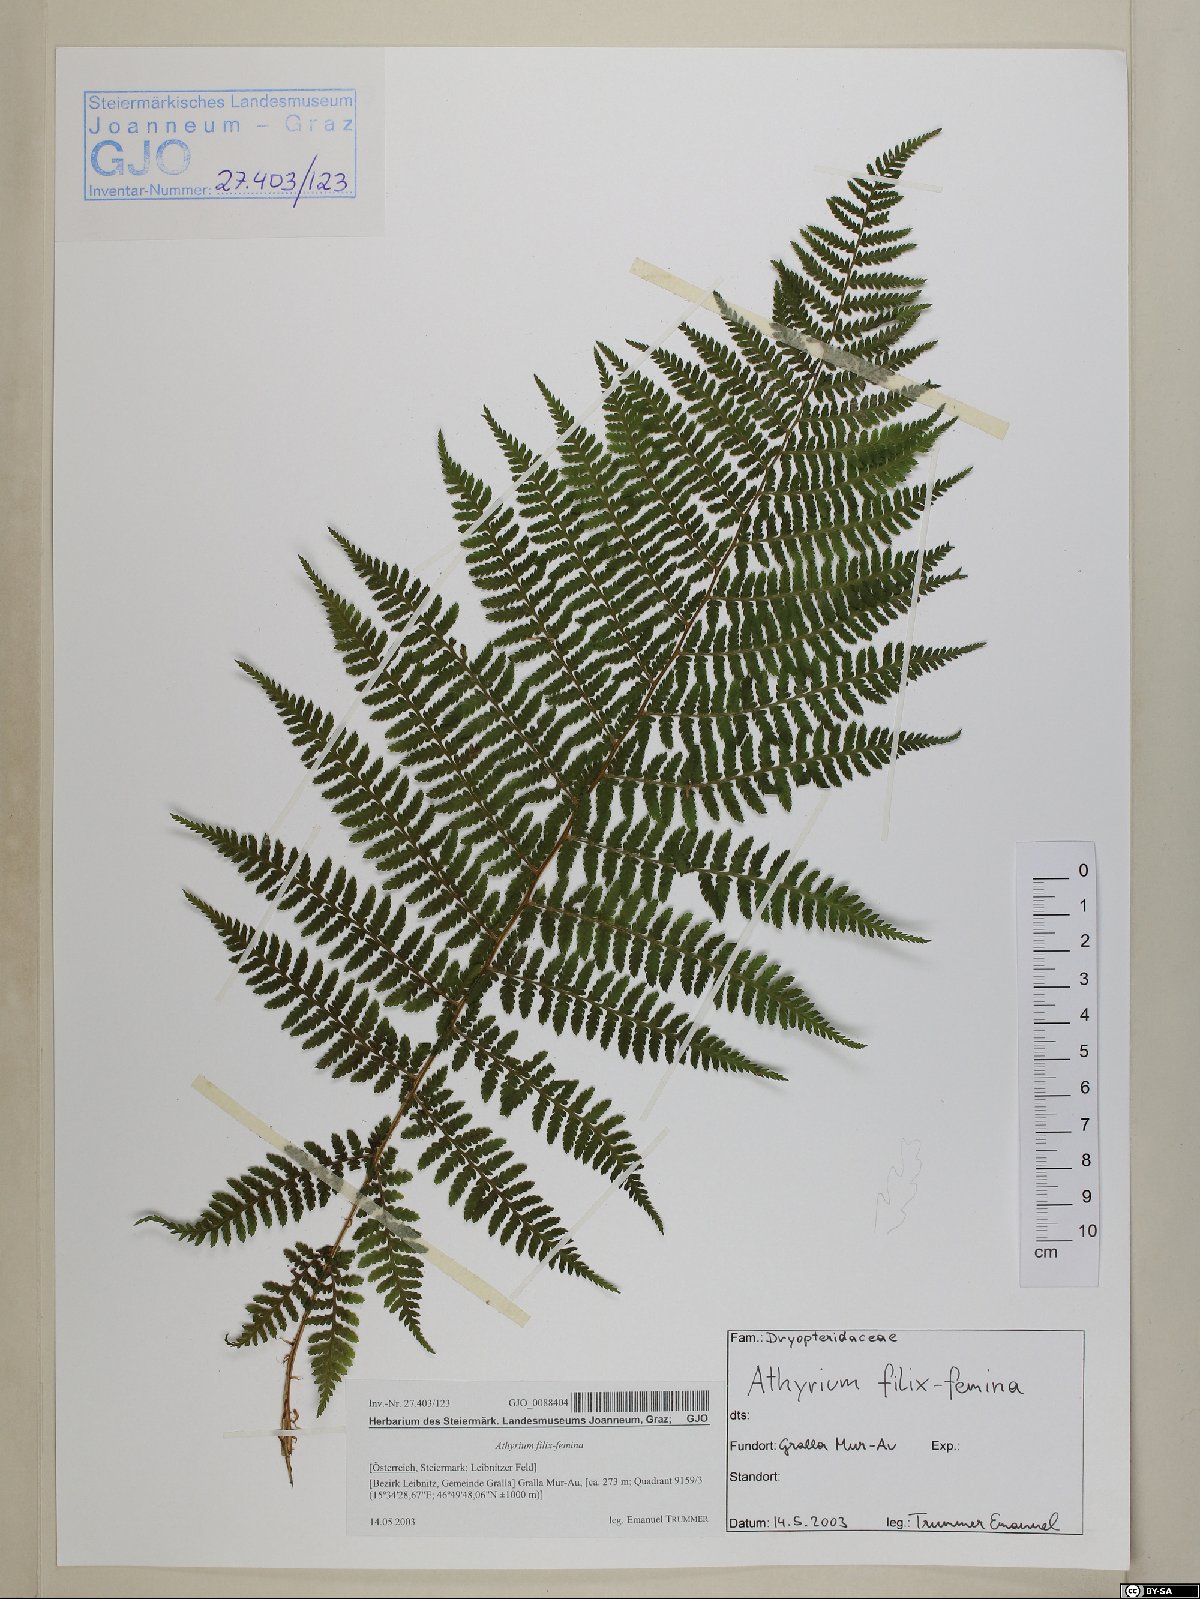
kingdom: Plantae
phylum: Tracheophyta
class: Polypodiopsida
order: Polypodiales
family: Athyriaceae
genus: Athyrium
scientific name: Athyrium filix-femina
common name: Lady fern
